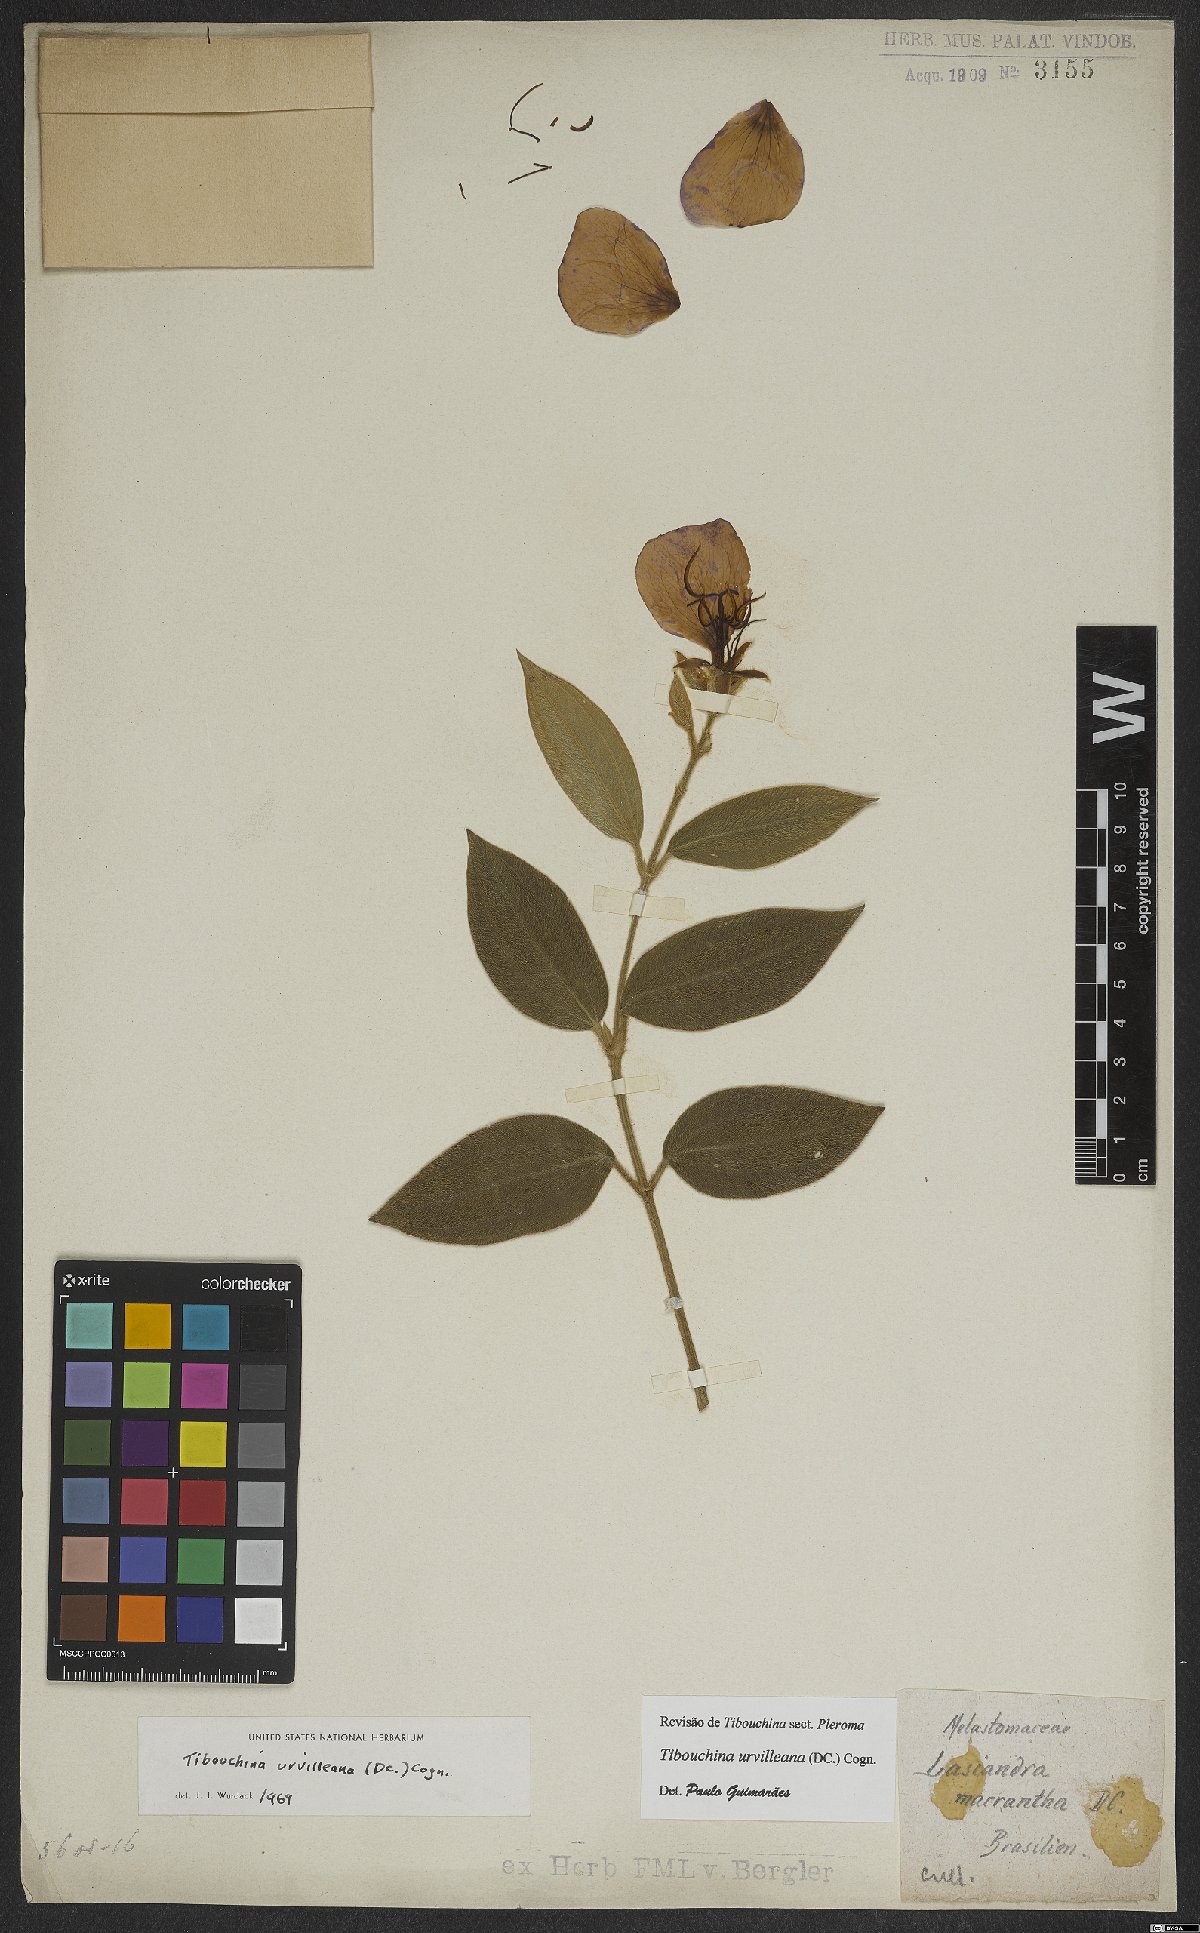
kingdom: Plantae
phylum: Tracheophyta
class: Magnoliopsida
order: Myrtales
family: Melastomataceae
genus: Pleroma
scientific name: Pleroma urvilleanum
